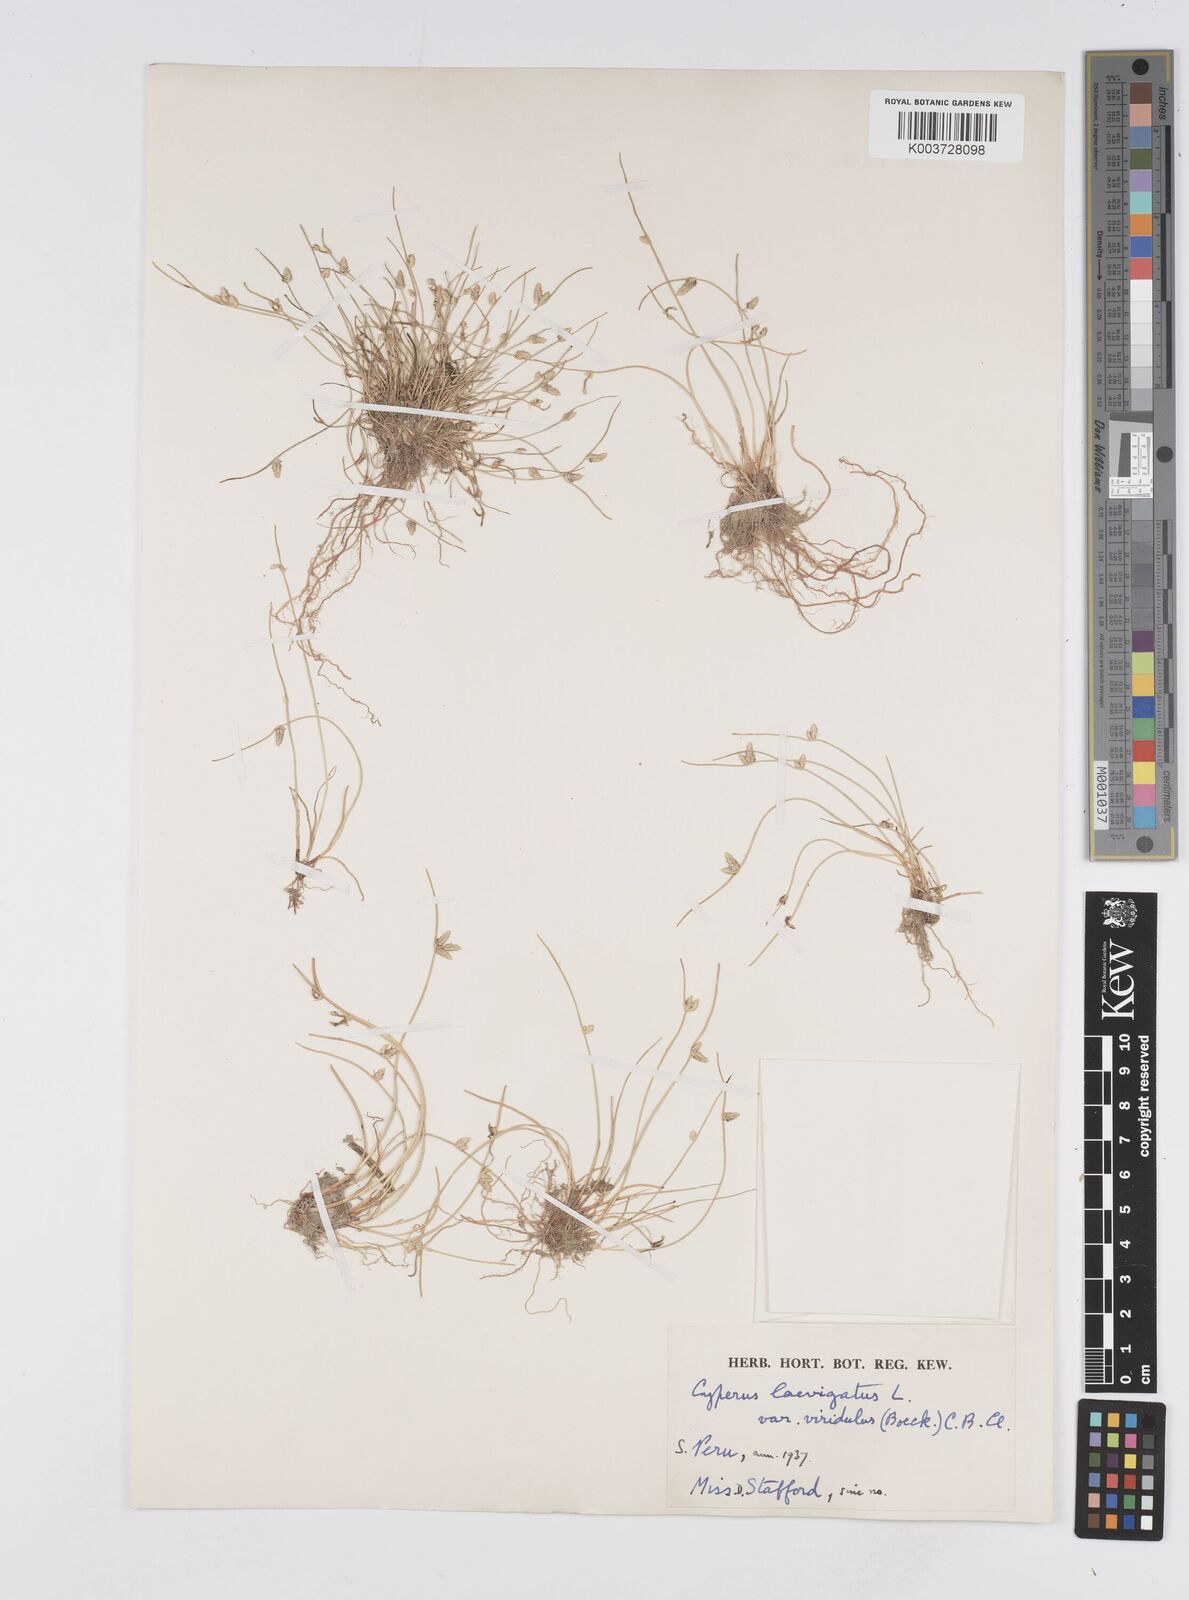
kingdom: Plantae
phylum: Tracheophyta
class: Liliopsida
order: Poales
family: Cyperaceae
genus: Cyperus
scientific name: Cyperus laevigatus
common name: Smooth flat sedge
